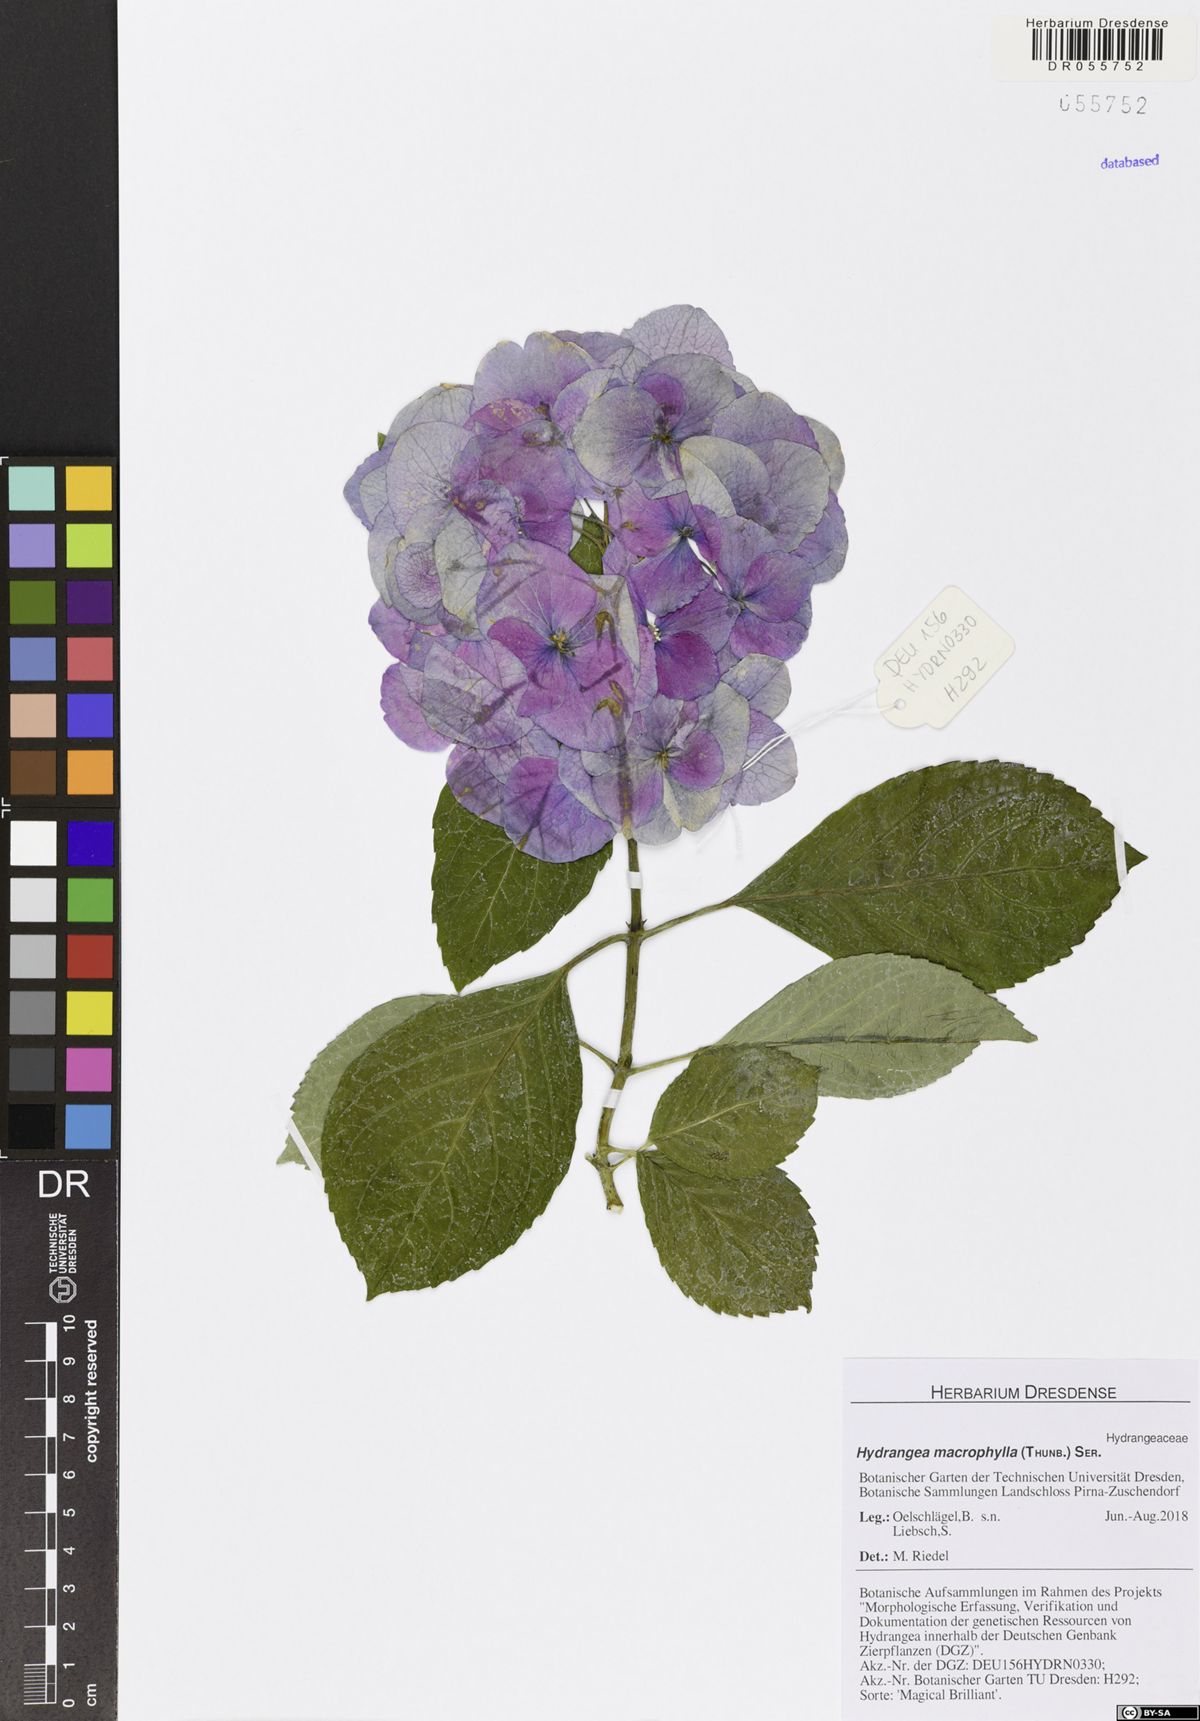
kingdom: Plantae
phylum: Tracheophyta
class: Magnoliopsida
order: Cornales
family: Hydrangeaceae
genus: Hydrangea
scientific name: Hydrangea macrophylla
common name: Hydrangea
